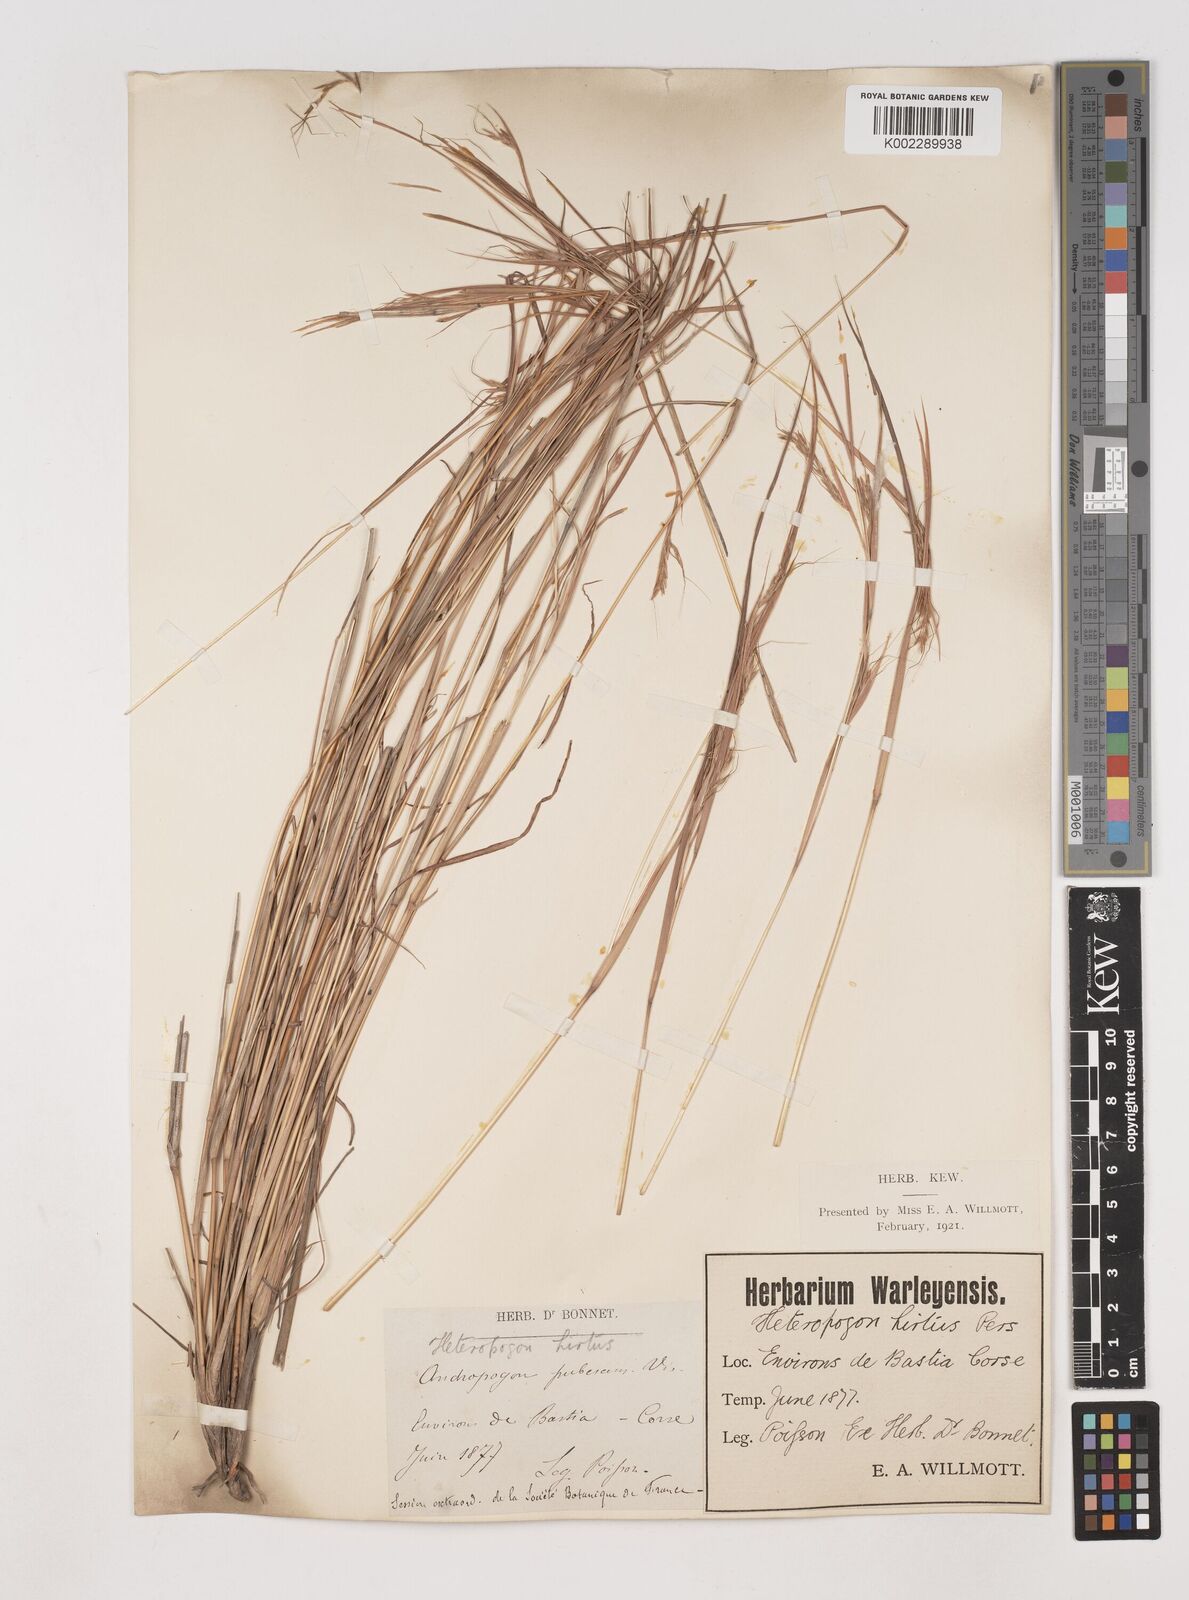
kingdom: Plantae
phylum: Tracheophyta
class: Liliopsida
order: Poales
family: Poaceae
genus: Hyparrhenia
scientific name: Hyparrhenia hirta
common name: Thatching grass
